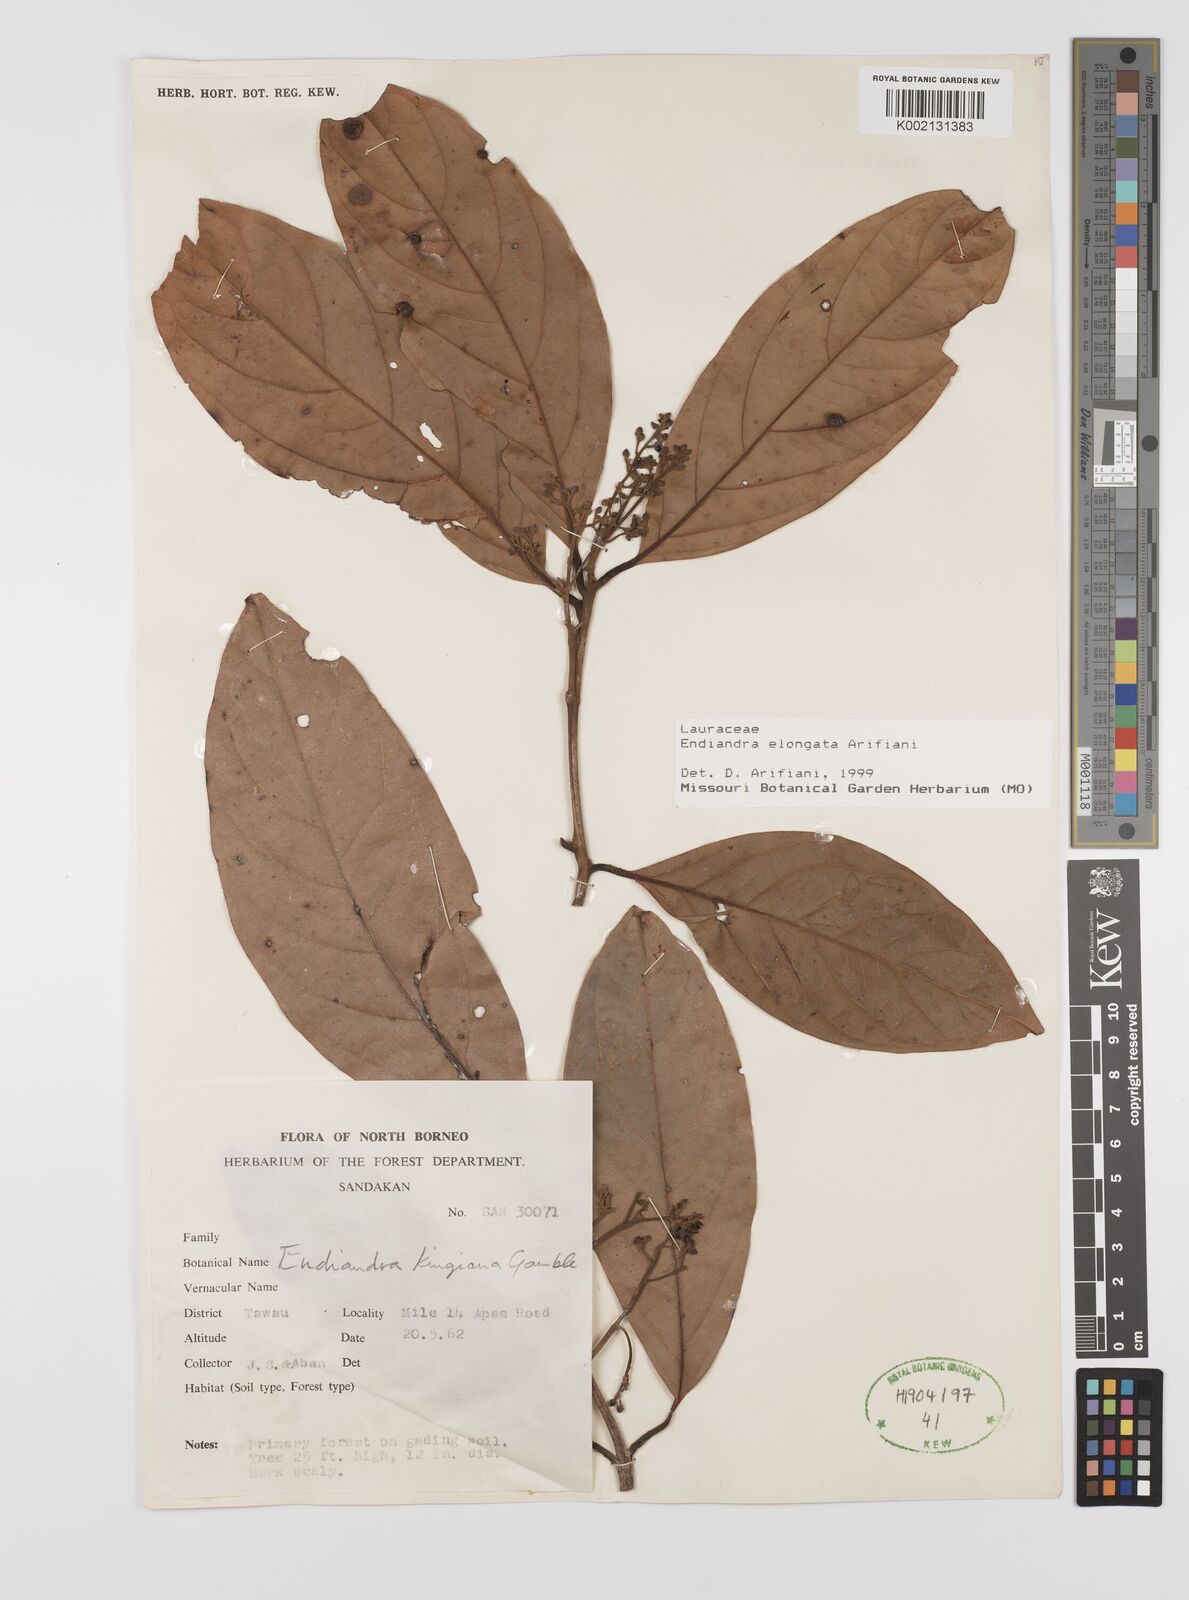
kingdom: Plantae
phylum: Tracheophyta
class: Magnoliopsida
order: Laurales
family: Lauraceae
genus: Endiandra
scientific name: Endiandra elongata
